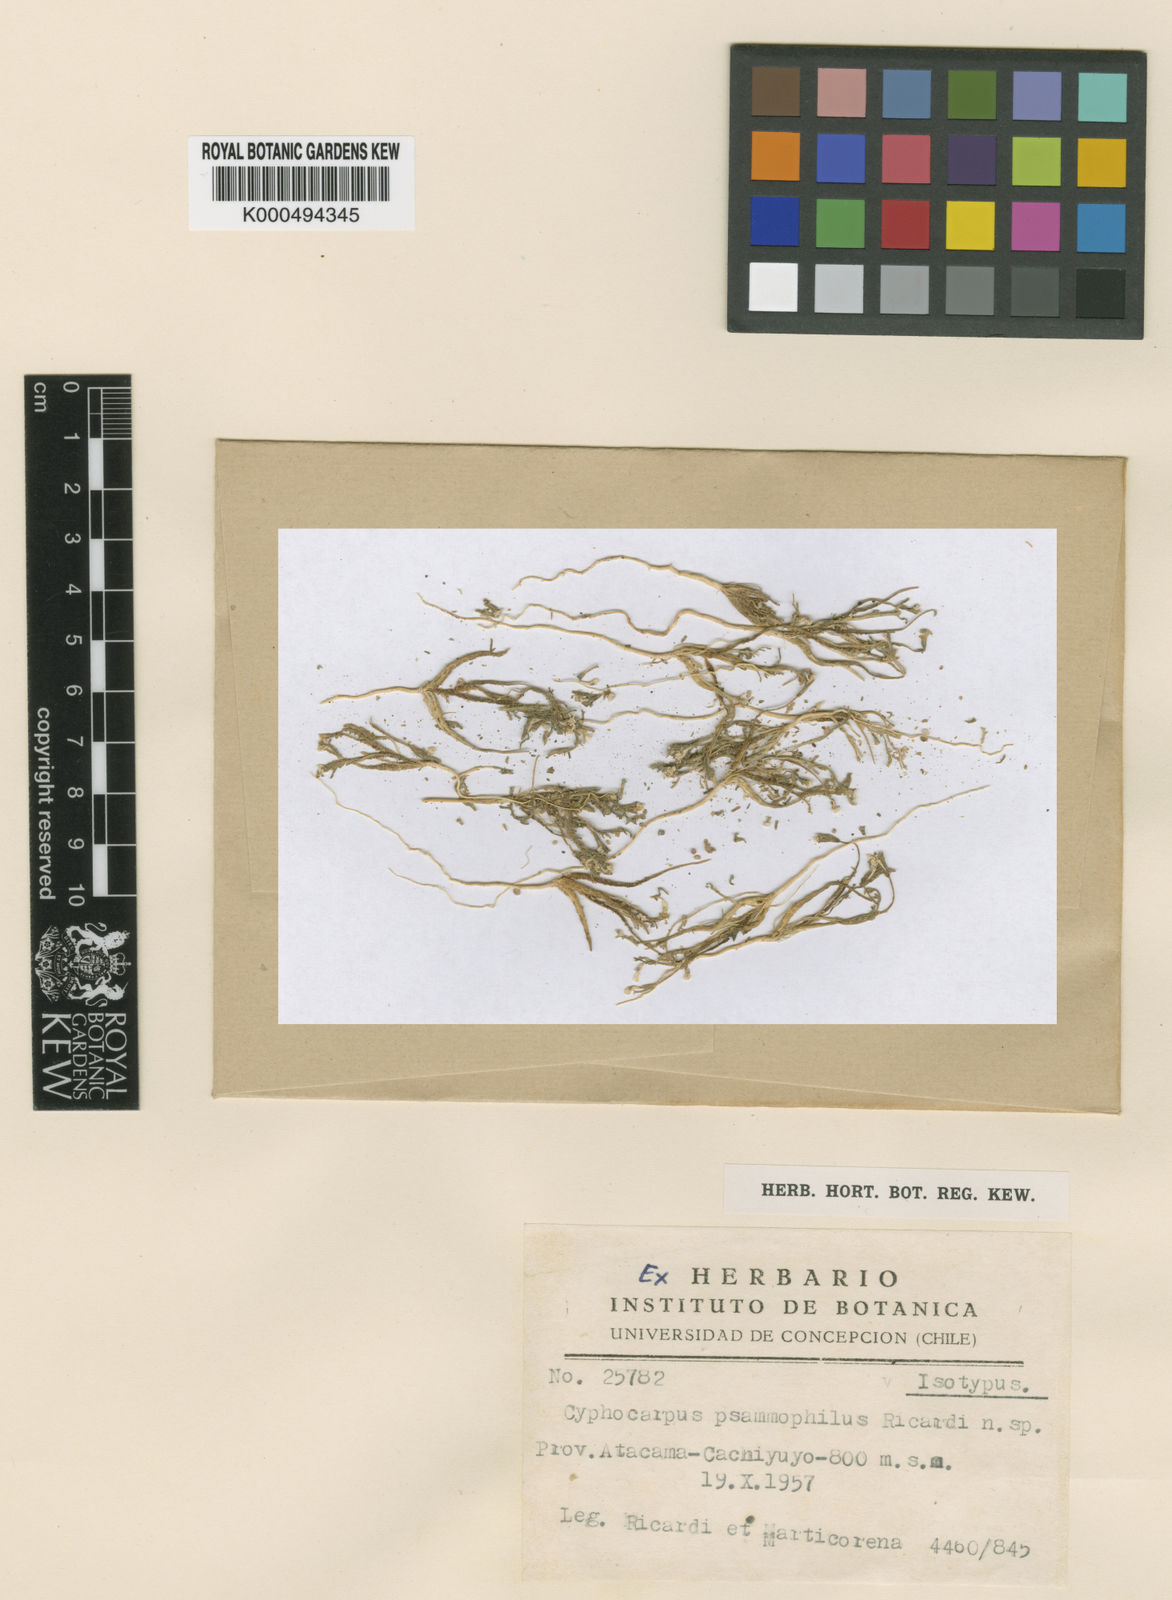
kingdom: Plantae
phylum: Tracheophyta
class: Magnoliopsida
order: Asterales
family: Campanulaceae
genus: Cyphocarpus
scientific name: Cyphocarpus psammophilus
